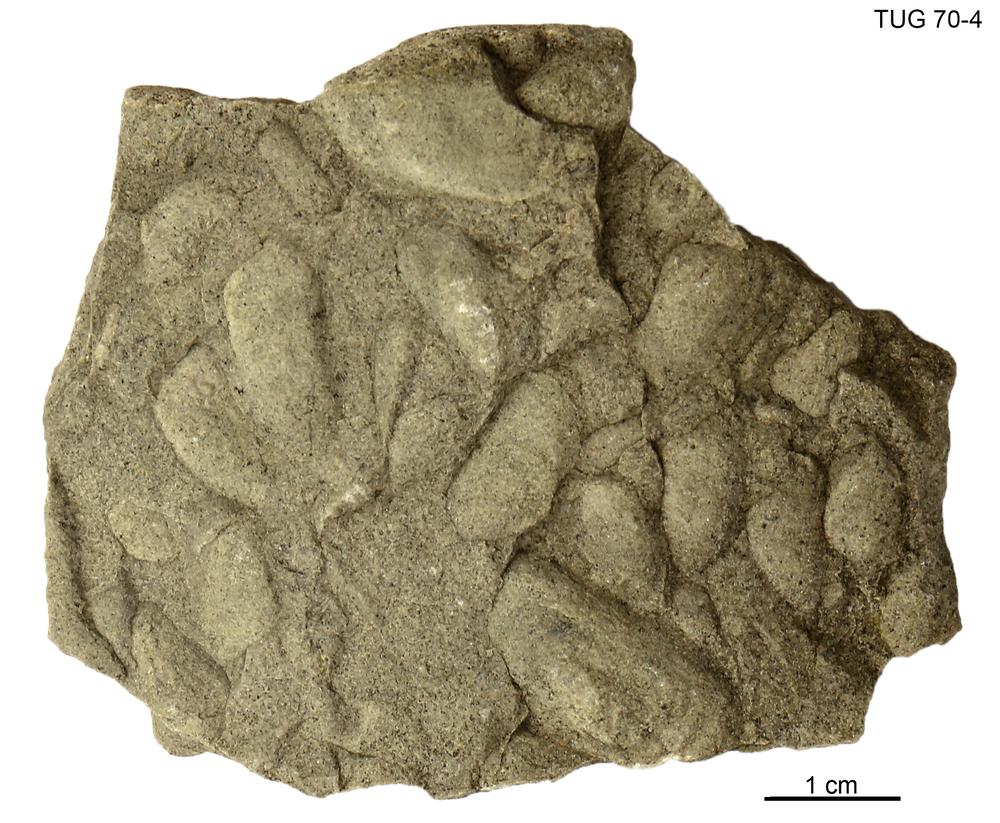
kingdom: Animalia
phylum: Mollusca
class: Bivalvia
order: Modiomorphida
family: Modiomorphidae
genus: Modiolopsis
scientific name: Modiolopsis
